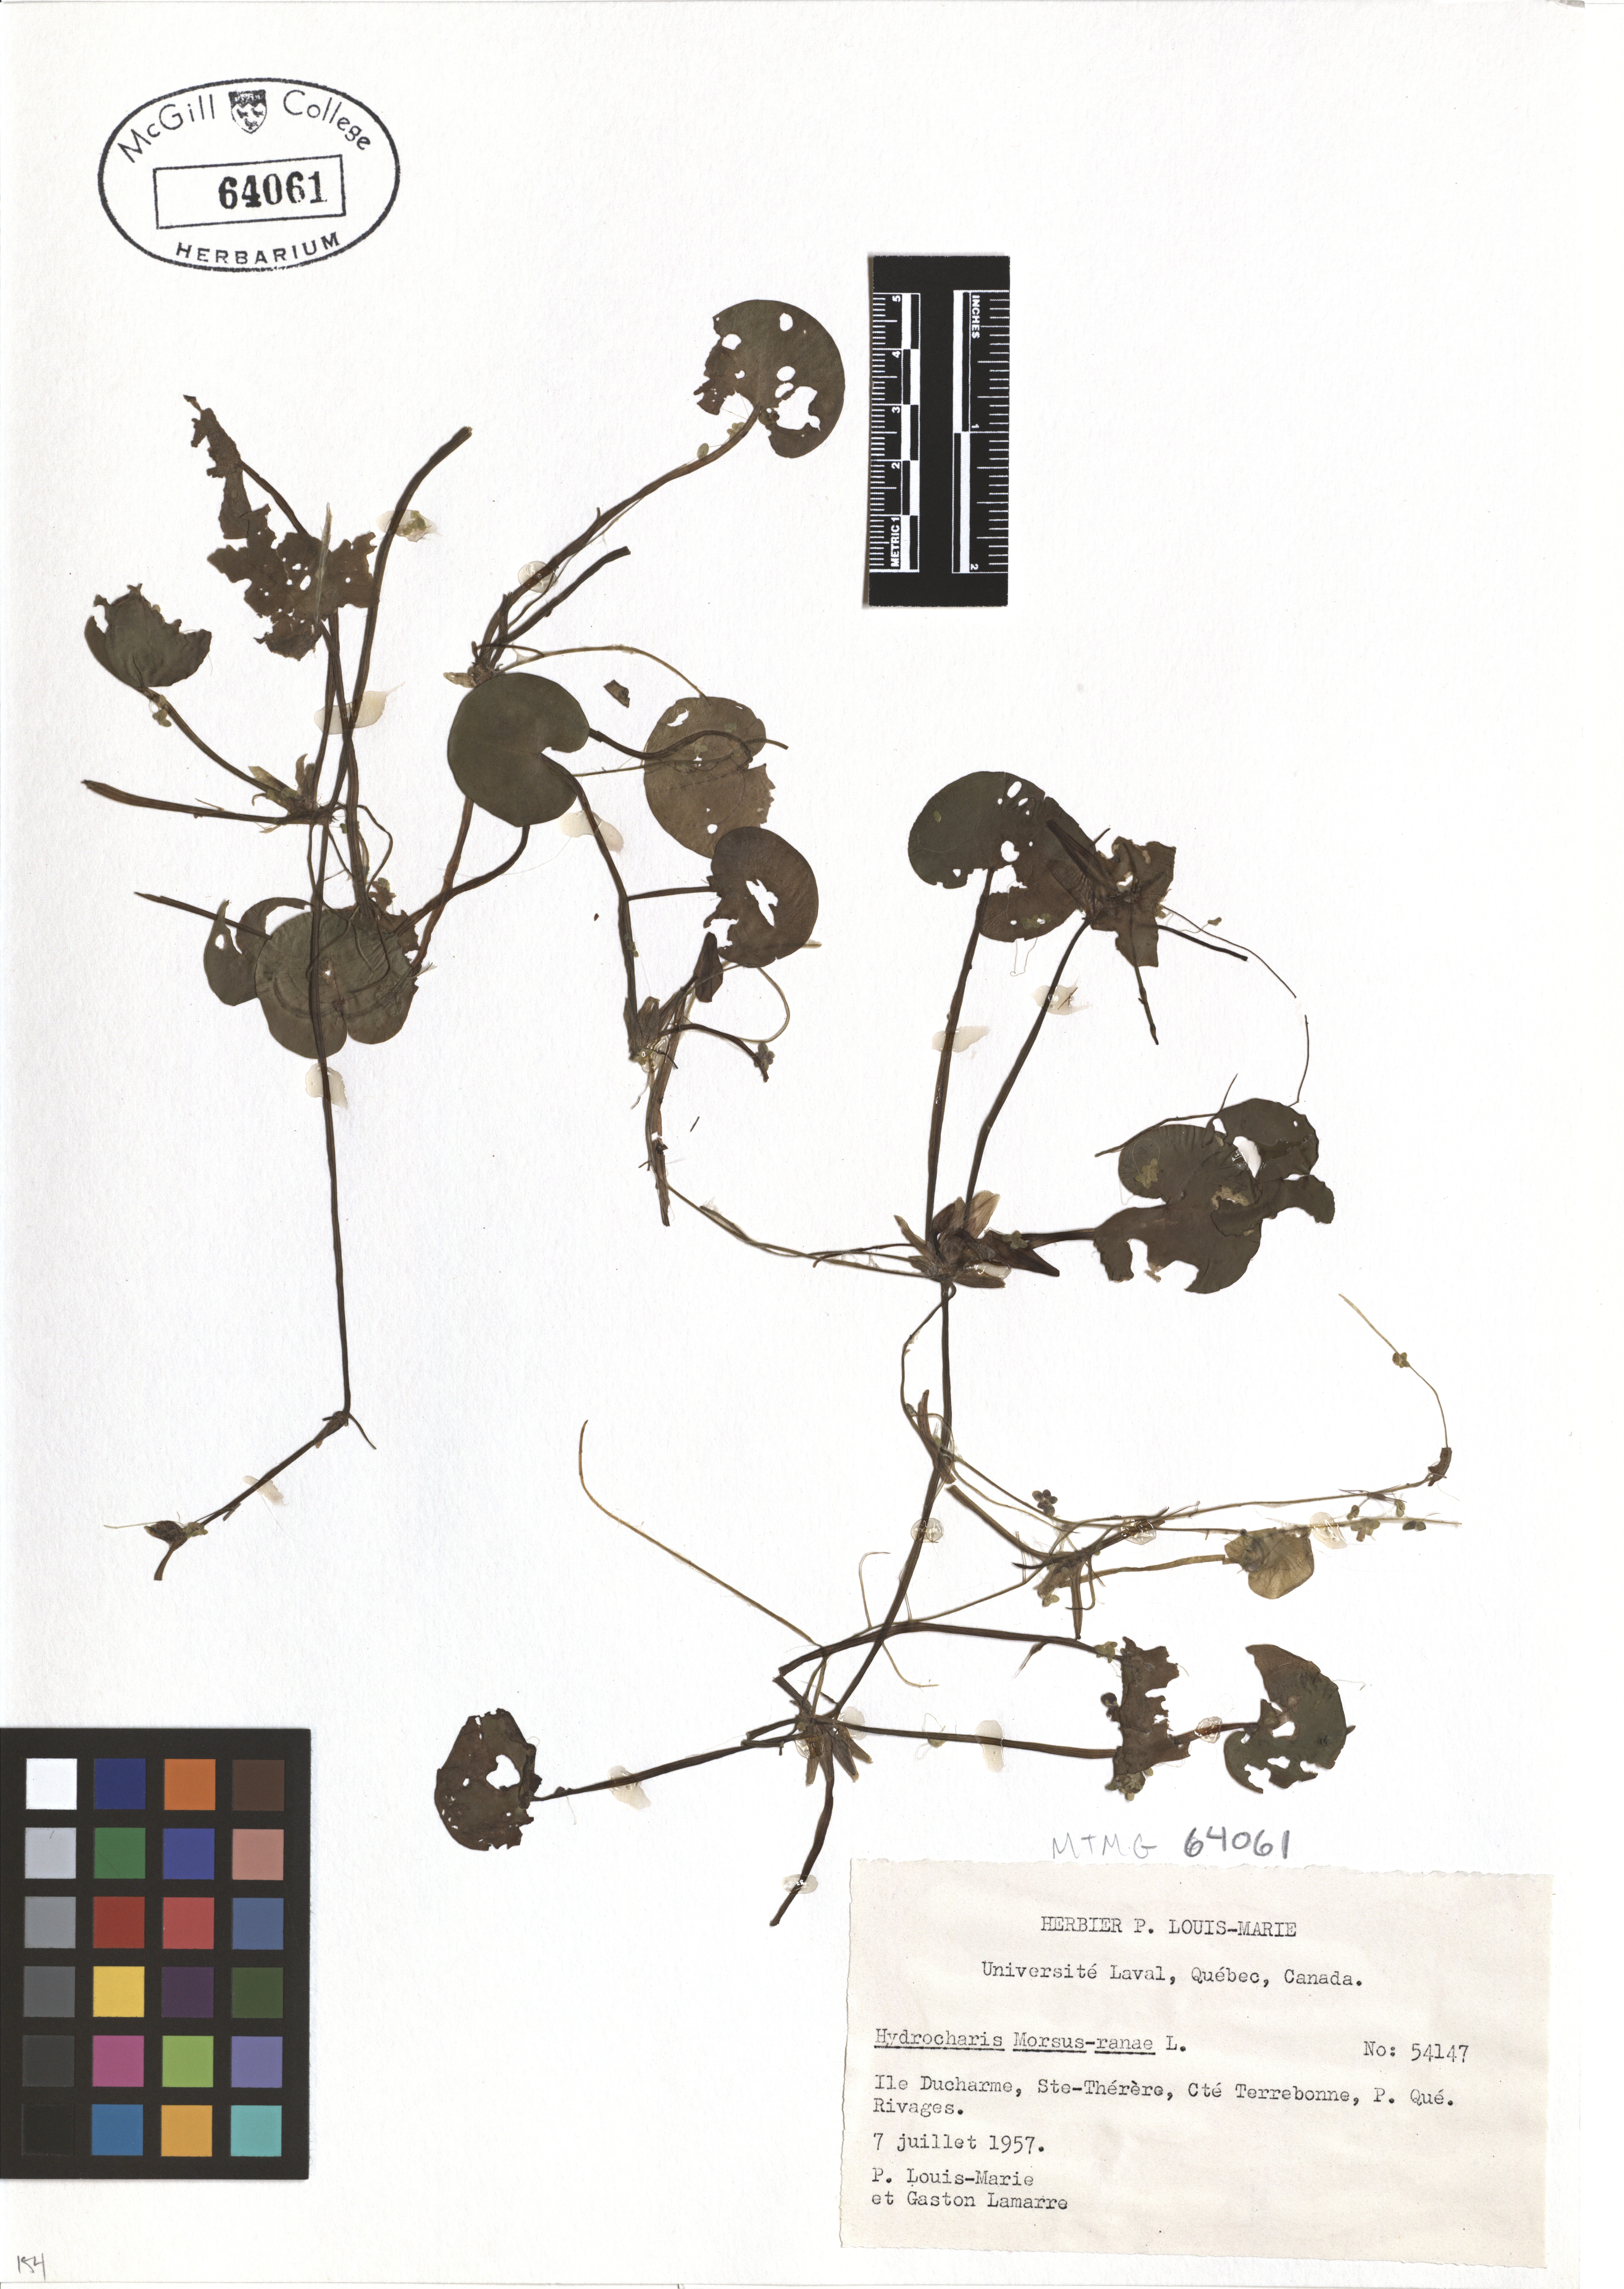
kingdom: Plantae
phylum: Tracheophyta
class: Liliopsida
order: Alismatales
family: Hydrocharitaceae
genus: Hydrocharis
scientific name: Hydrocharis morsus-ranae
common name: Frogbit
